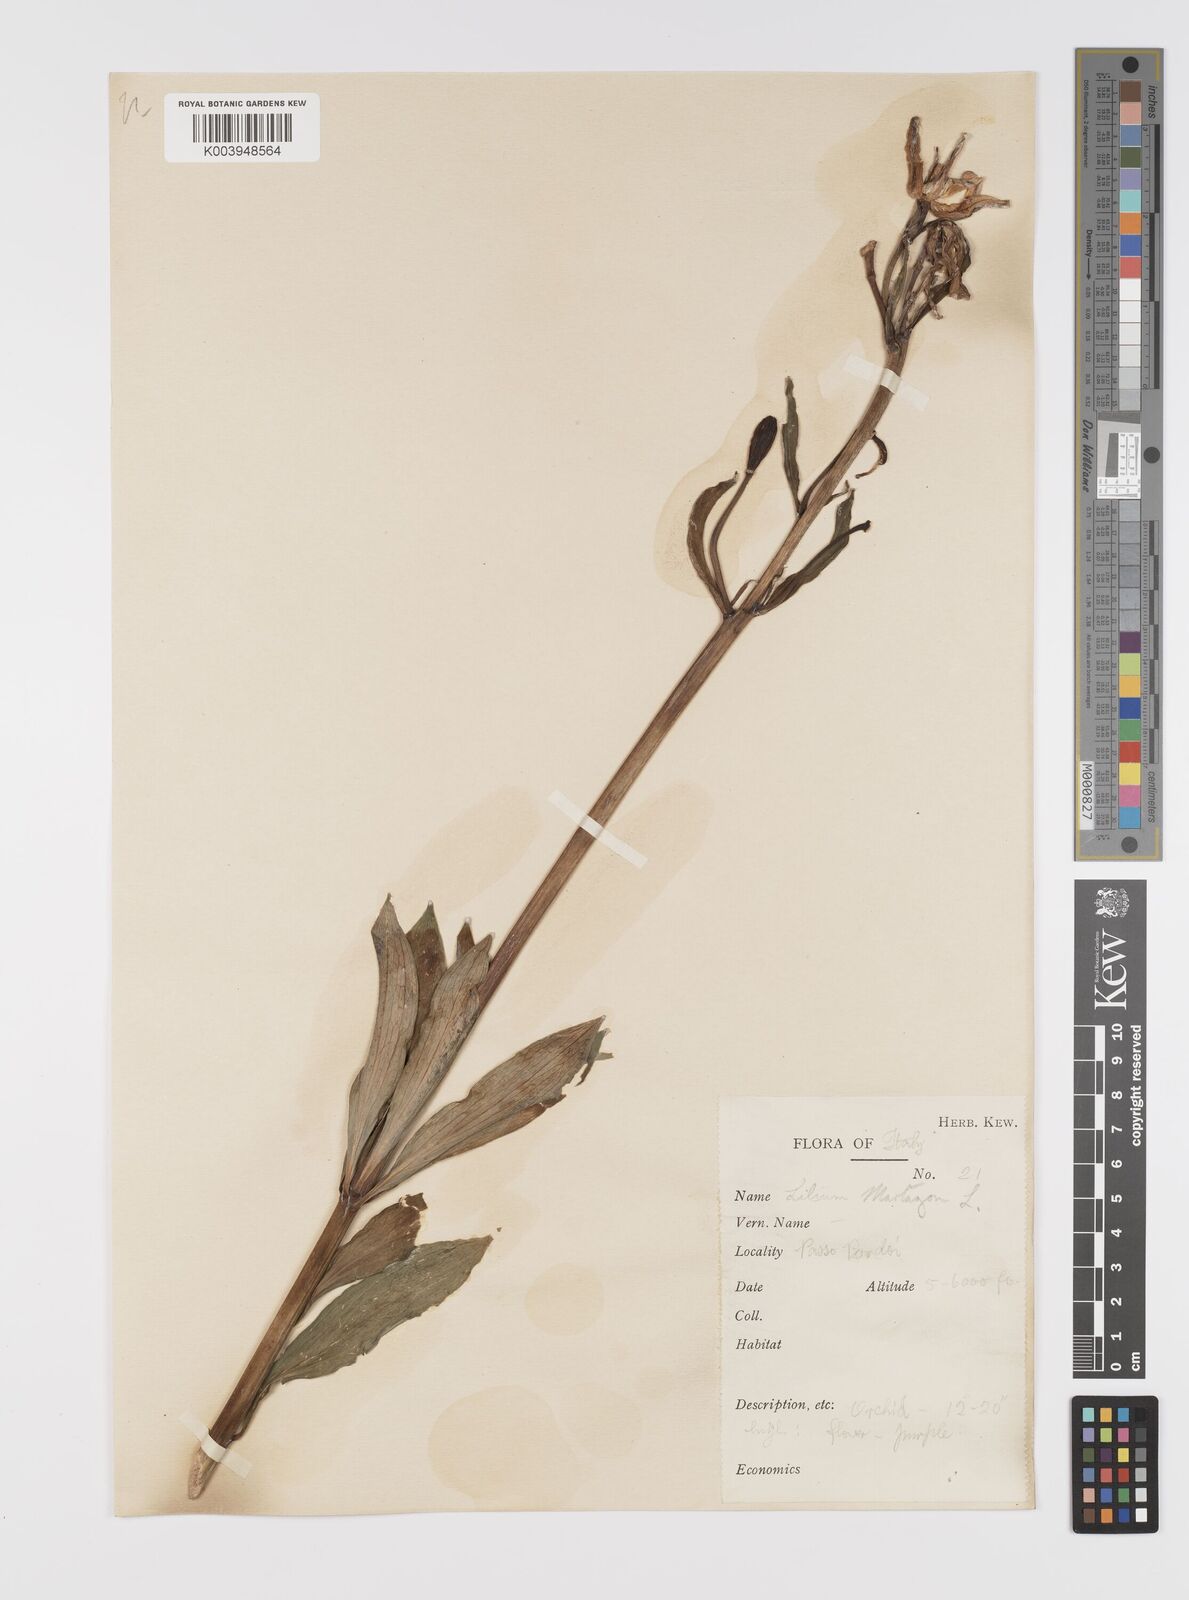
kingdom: Plantae
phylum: Tracheophyta
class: Liliopsida
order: Liliales
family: Liliaceae
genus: Lilium
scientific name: Lilium martagon
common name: Martagon lily
